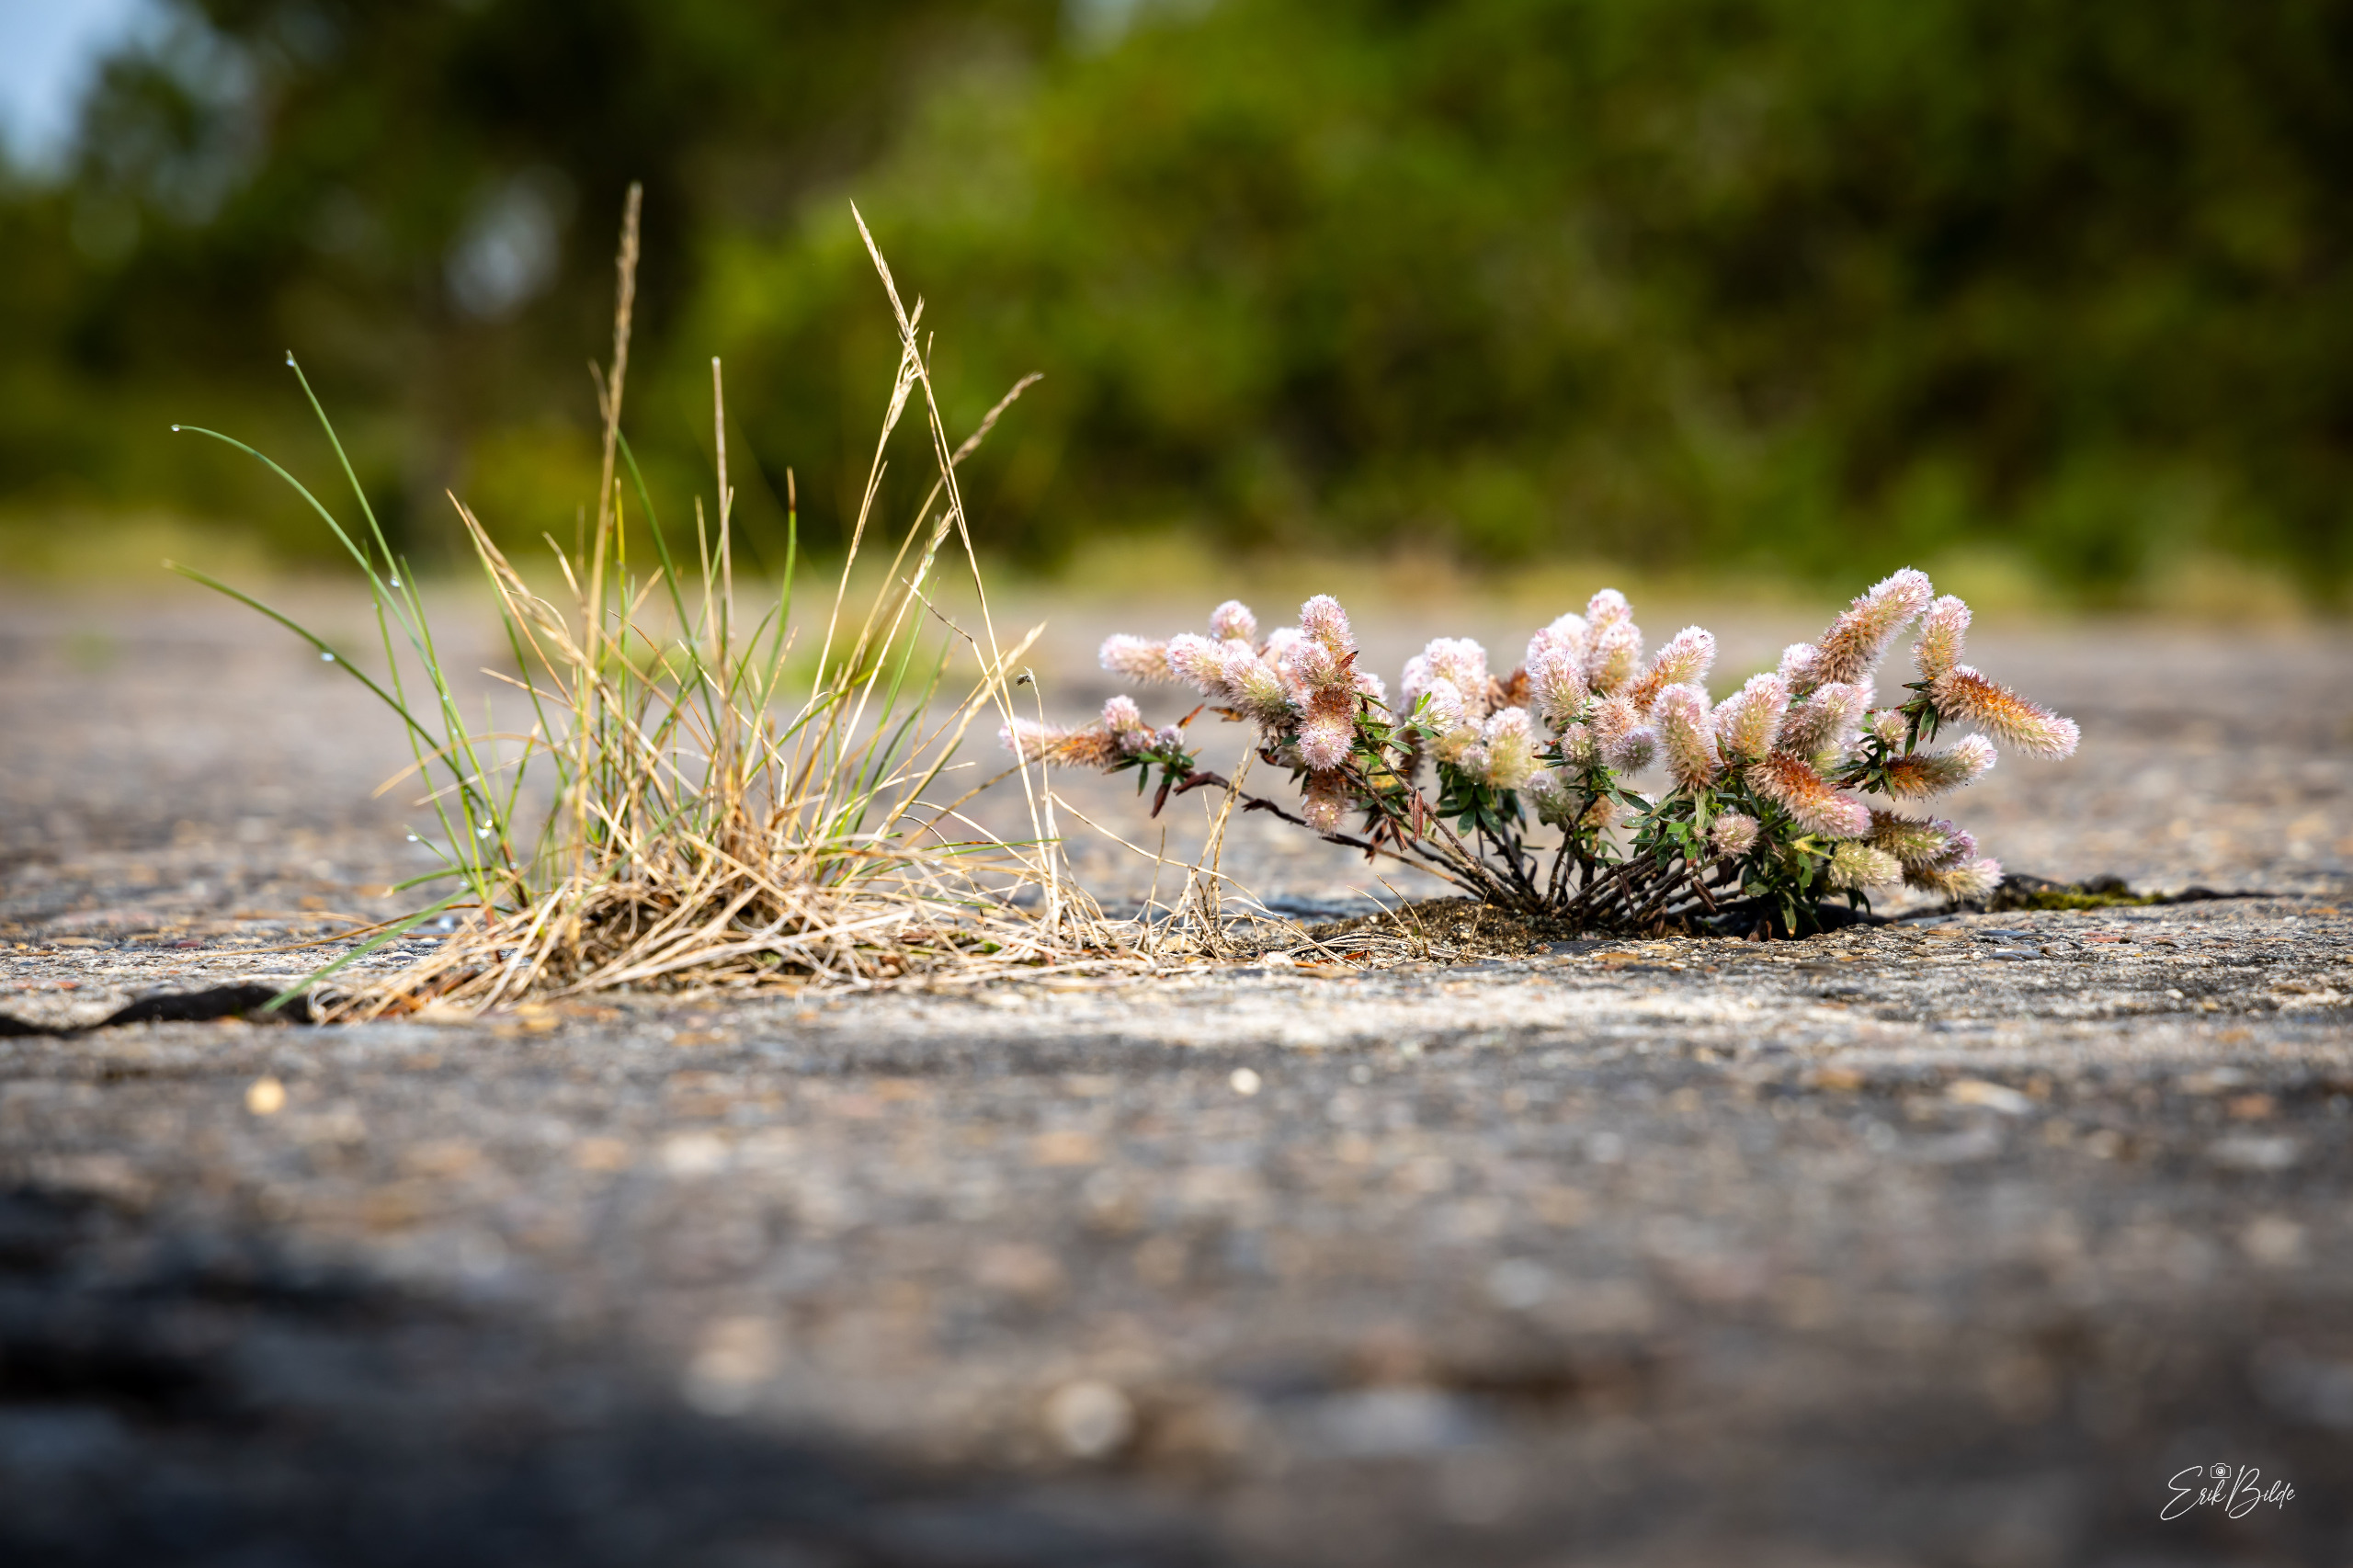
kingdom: Plantae
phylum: Tracheophyta
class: Magnoliopsida
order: Fabales
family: Fabaceae
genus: Trifolium
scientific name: Trifolium arvense
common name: Hare-kløver
